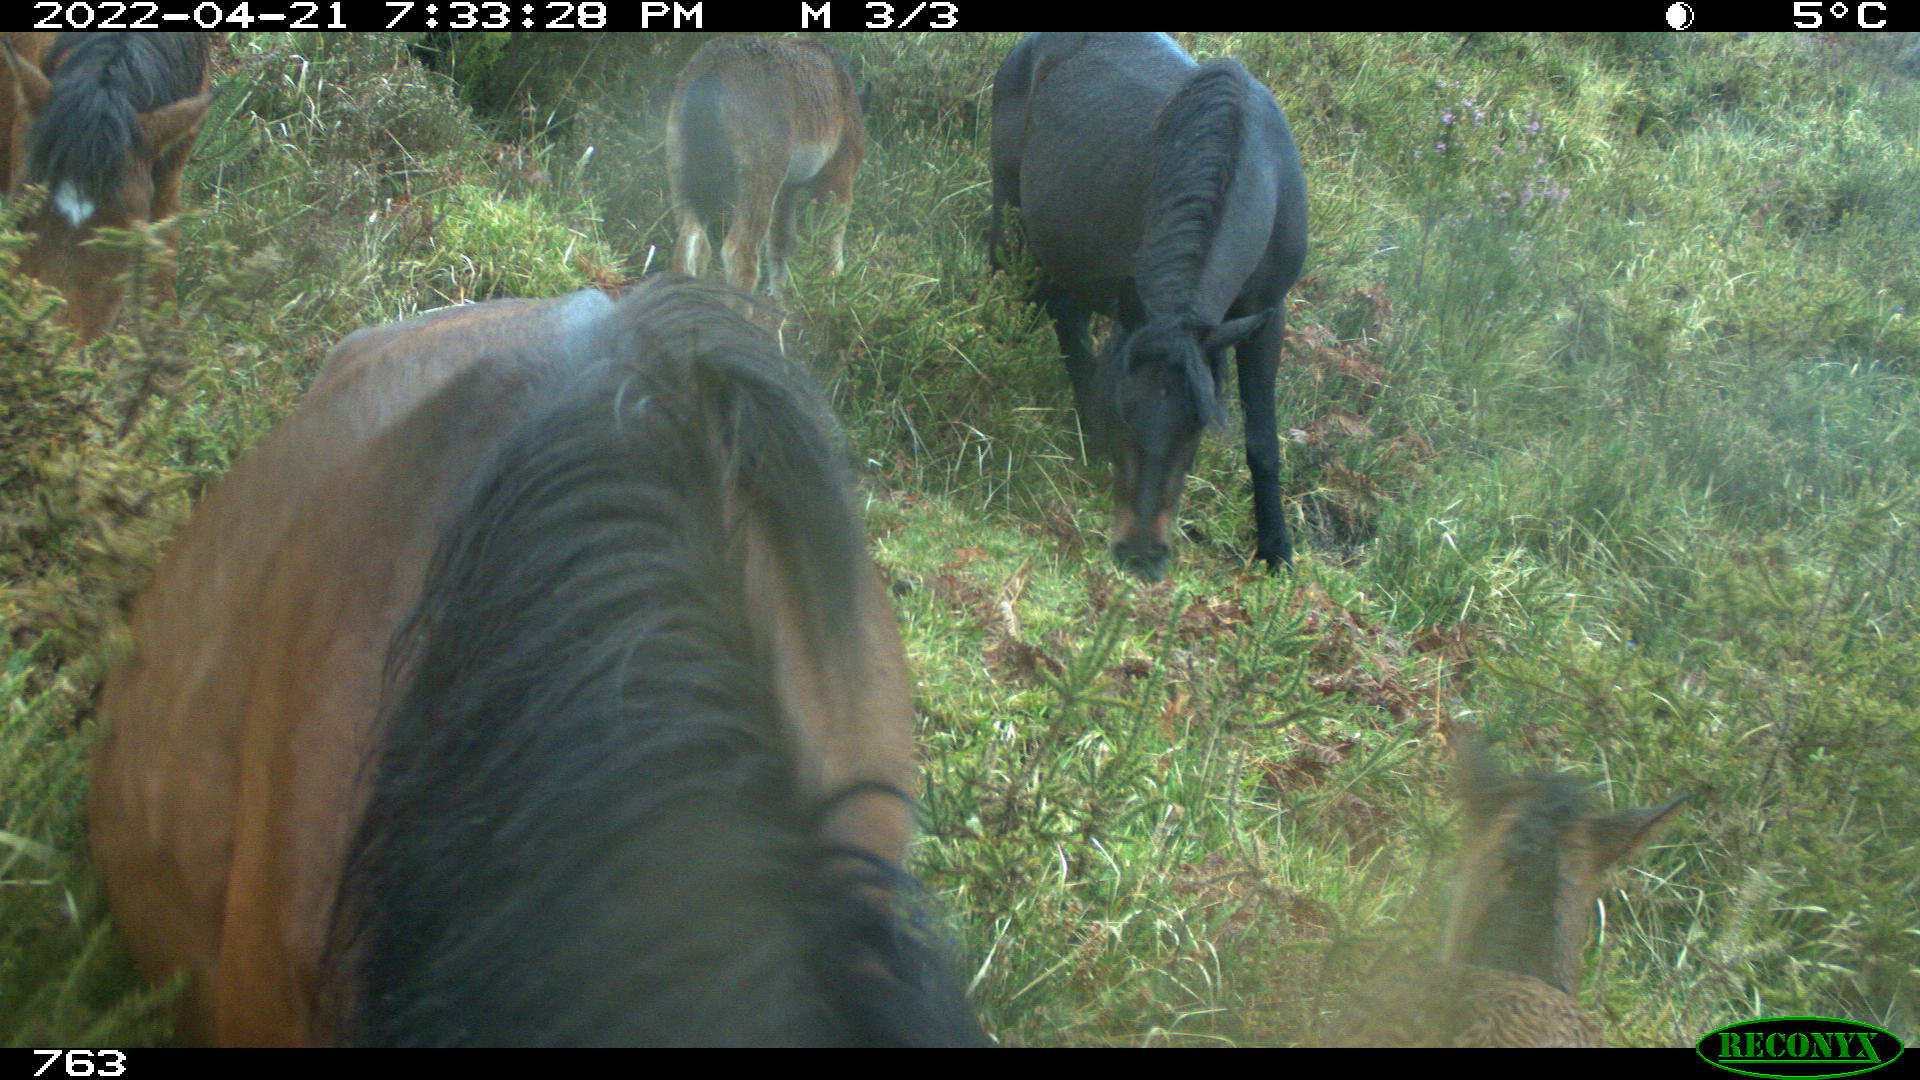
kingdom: Animalia
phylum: Chordata
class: Mammalia
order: Perissodactyla
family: Equidae
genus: Equus
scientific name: Equus caballus
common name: Horse
